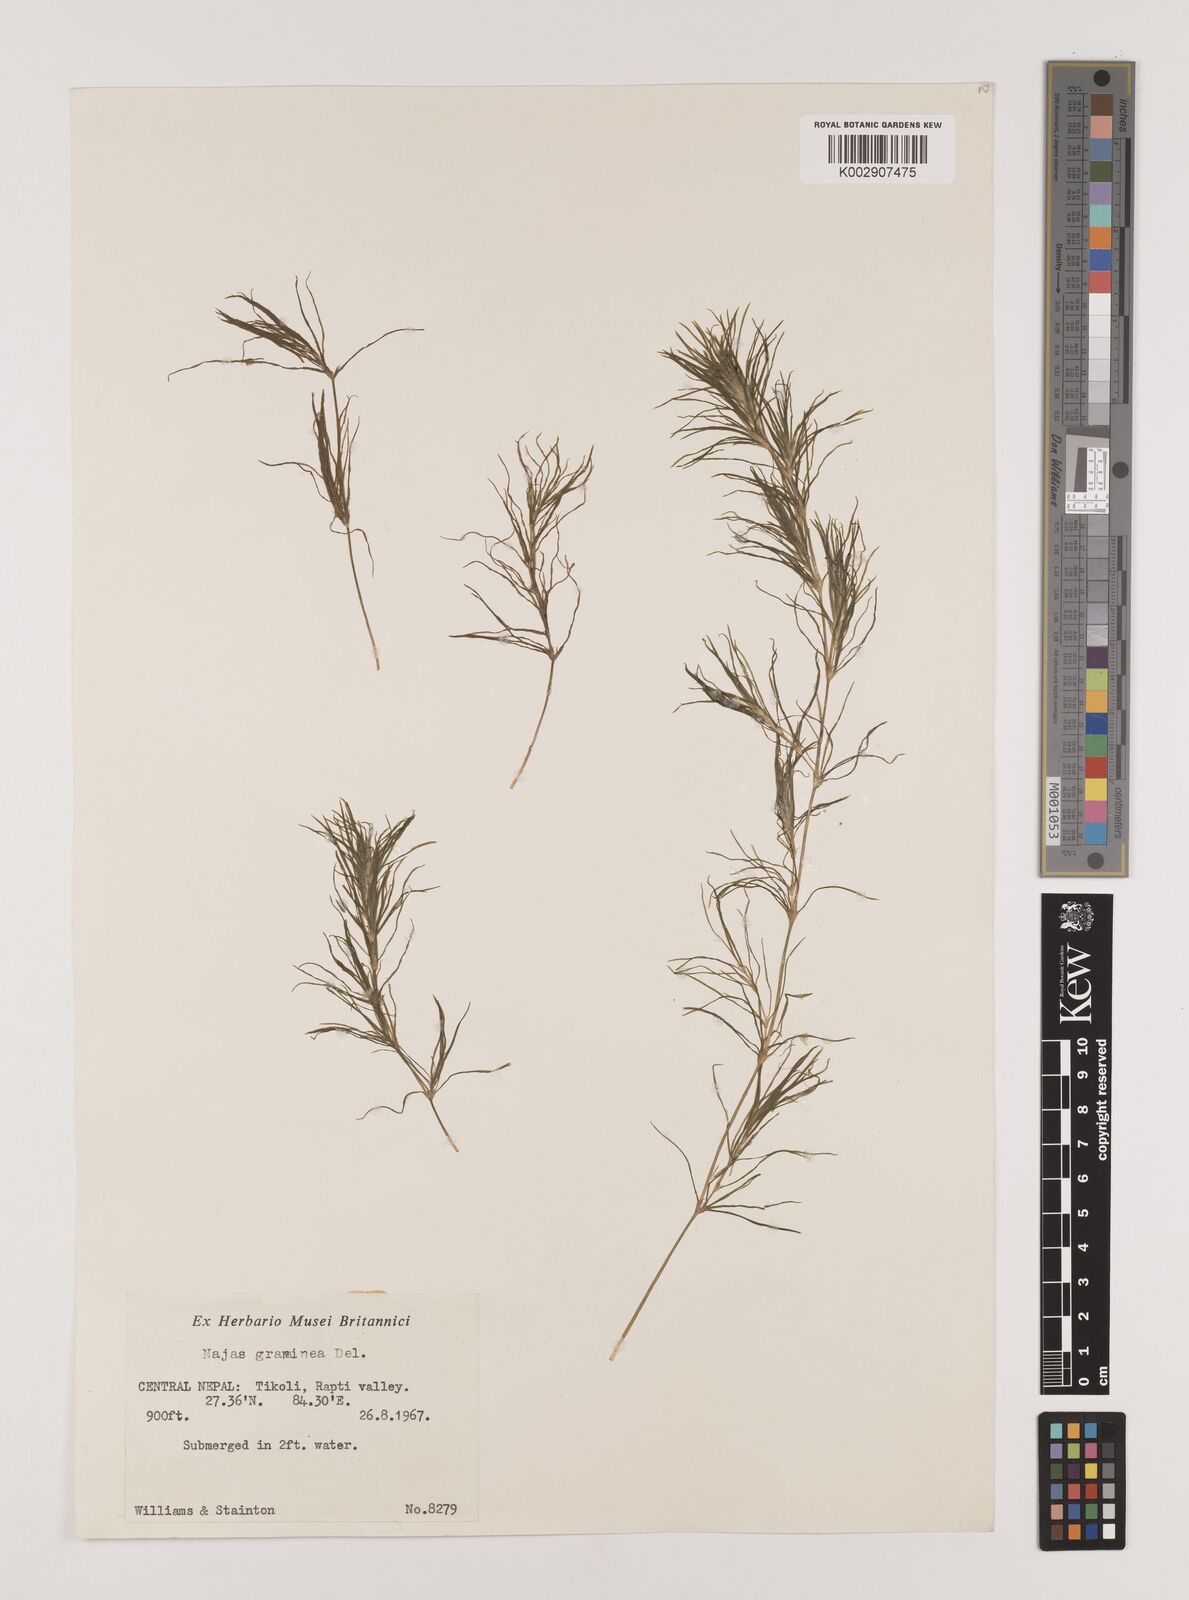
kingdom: Plantae
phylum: Tracheophyta
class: Liliopsida
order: Alismatales
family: Hydrocharitaceae
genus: Najas
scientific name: Najas graminea
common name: Ricefield waternymph
